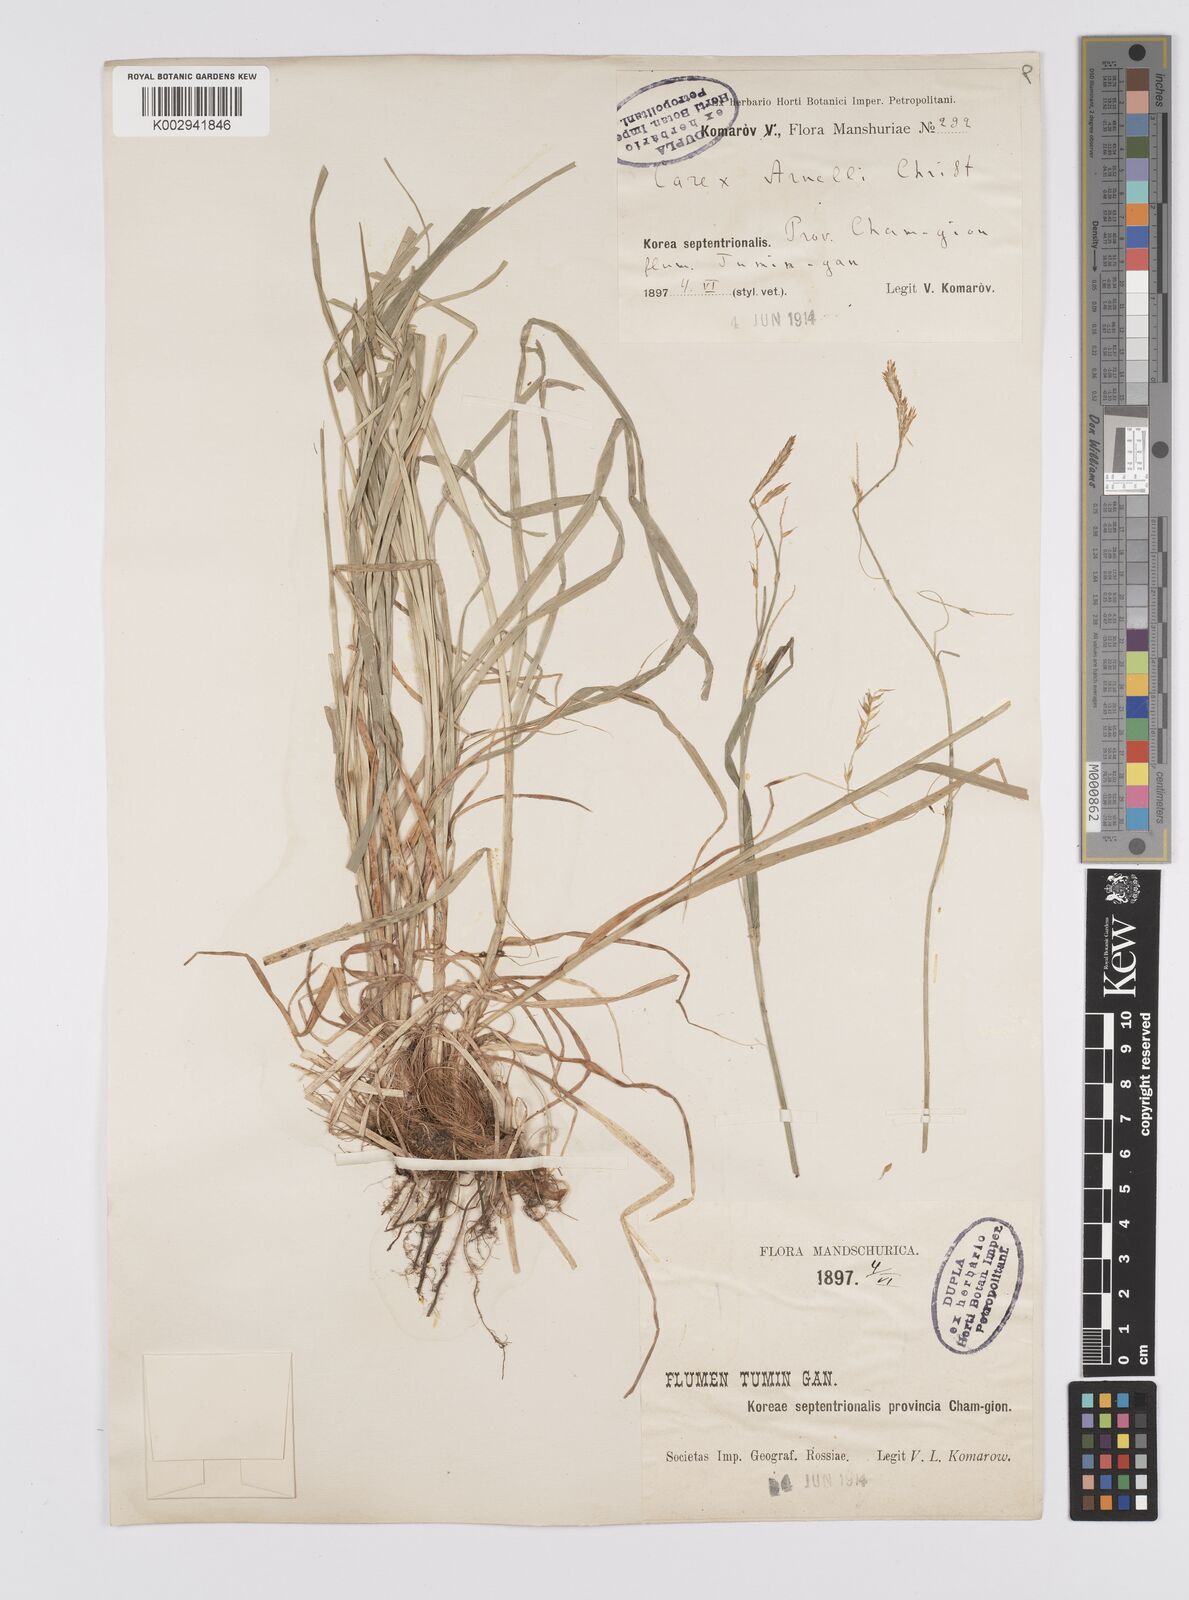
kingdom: Plantae
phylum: Tracheophyta
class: Liliopsida
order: Poales
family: Cyperaceae
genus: Carex
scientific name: Carex arnellii
